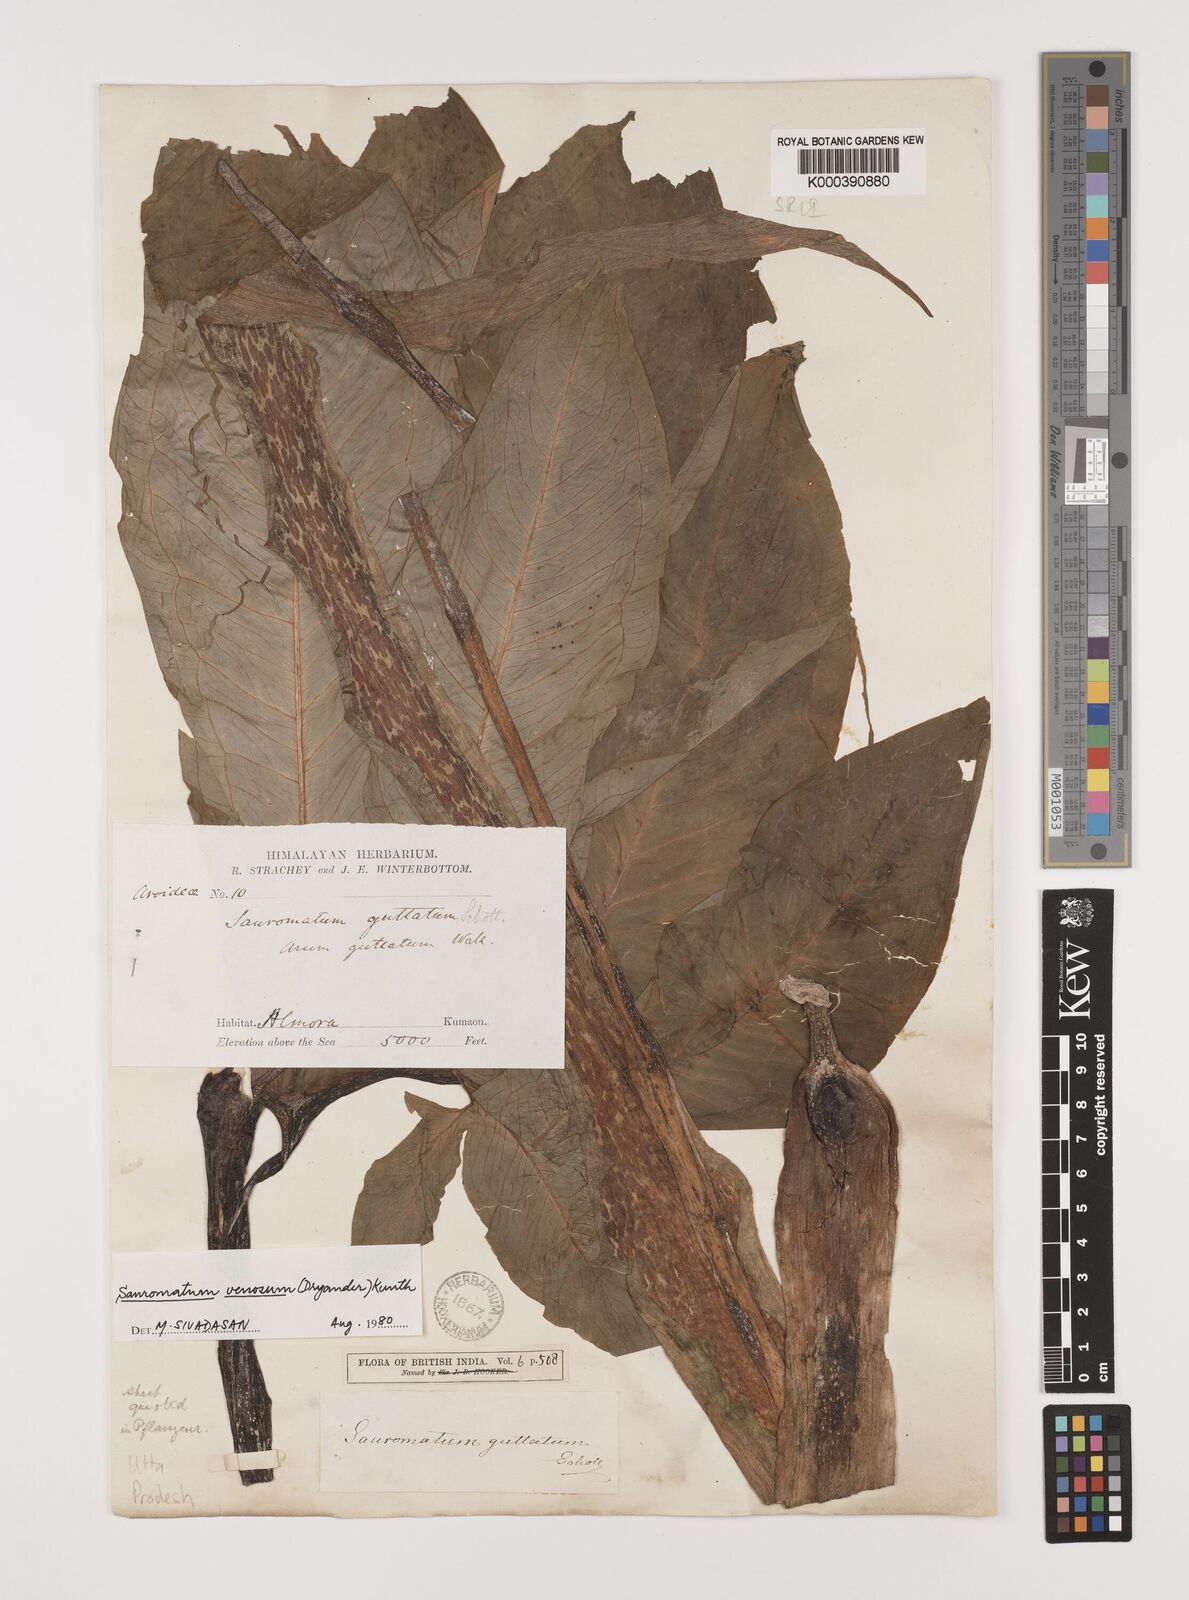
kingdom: Plantae
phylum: Tracheophyta
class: Liliopsida
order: Alismatales
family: Araceae
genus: Sauromatum
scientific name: Sauromatum venosum
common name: Voodoo lily
